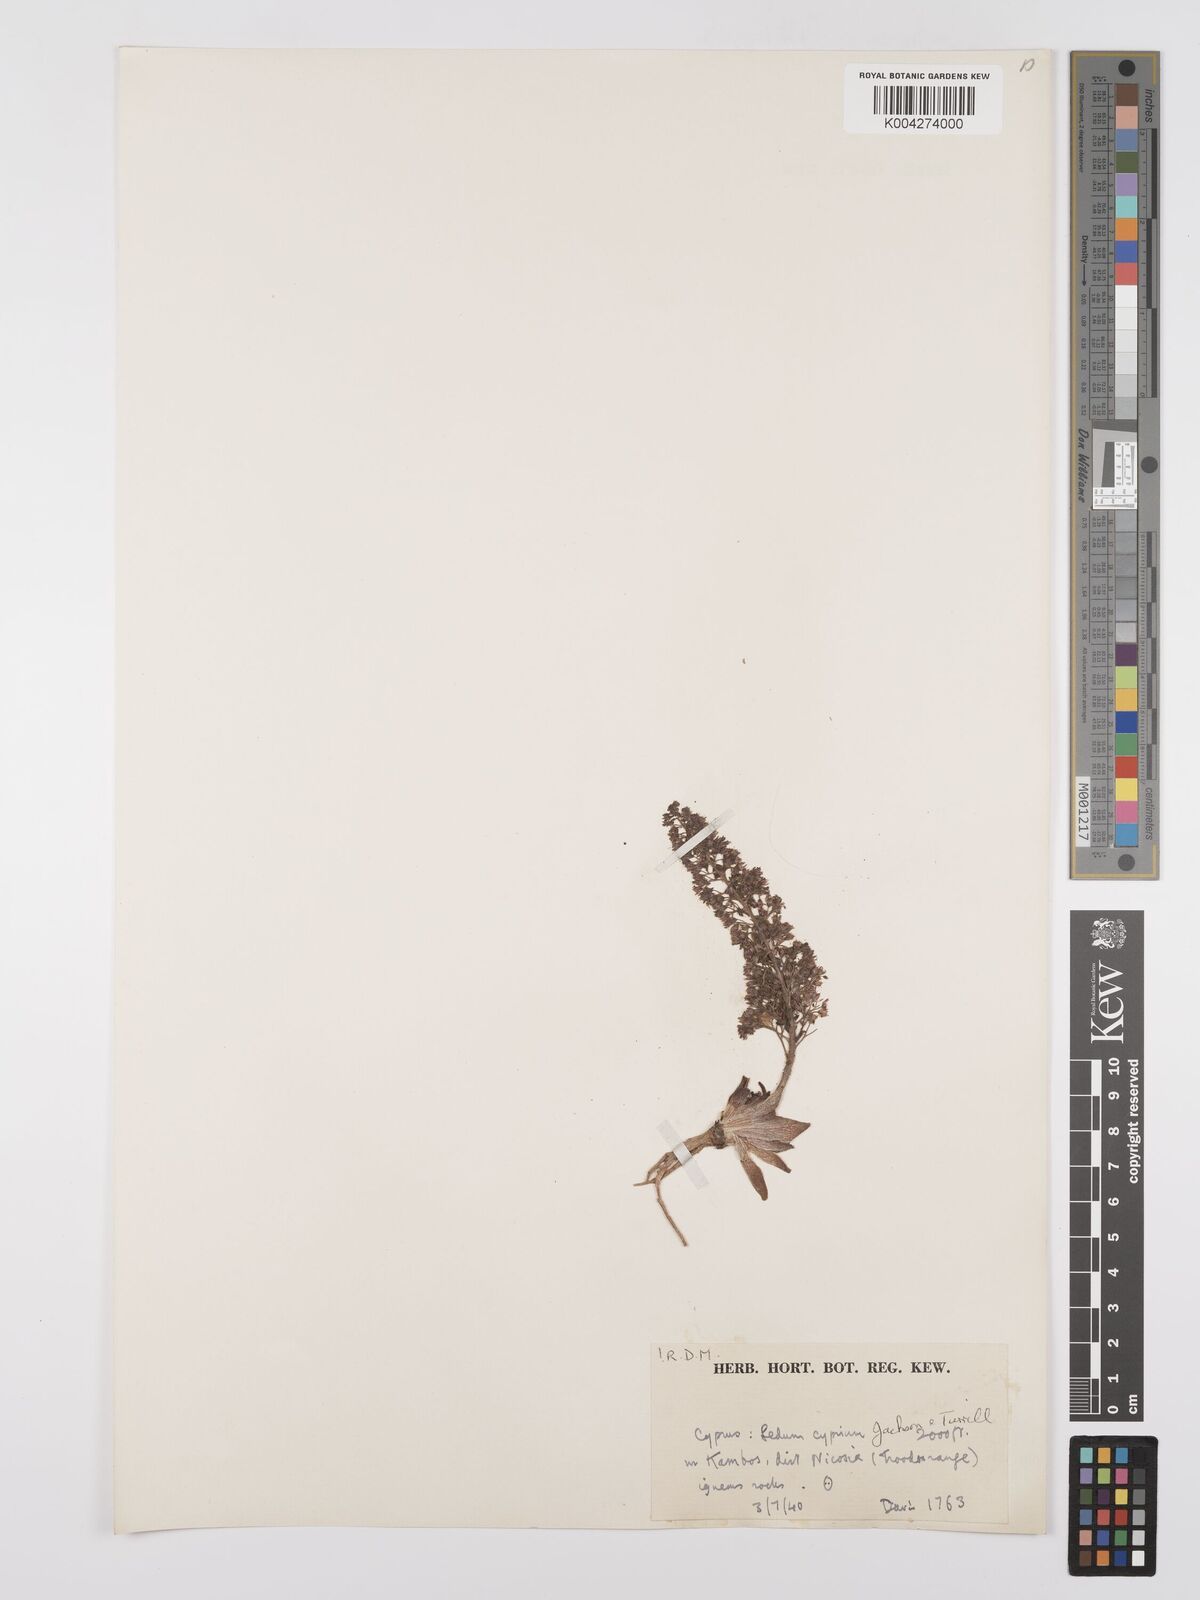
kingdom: Plantae
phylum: Tracheophyta
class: Magnoliopsida
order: Saxifragales
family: Crassulaceae
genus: Sedum
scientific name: Sedum cyprium
